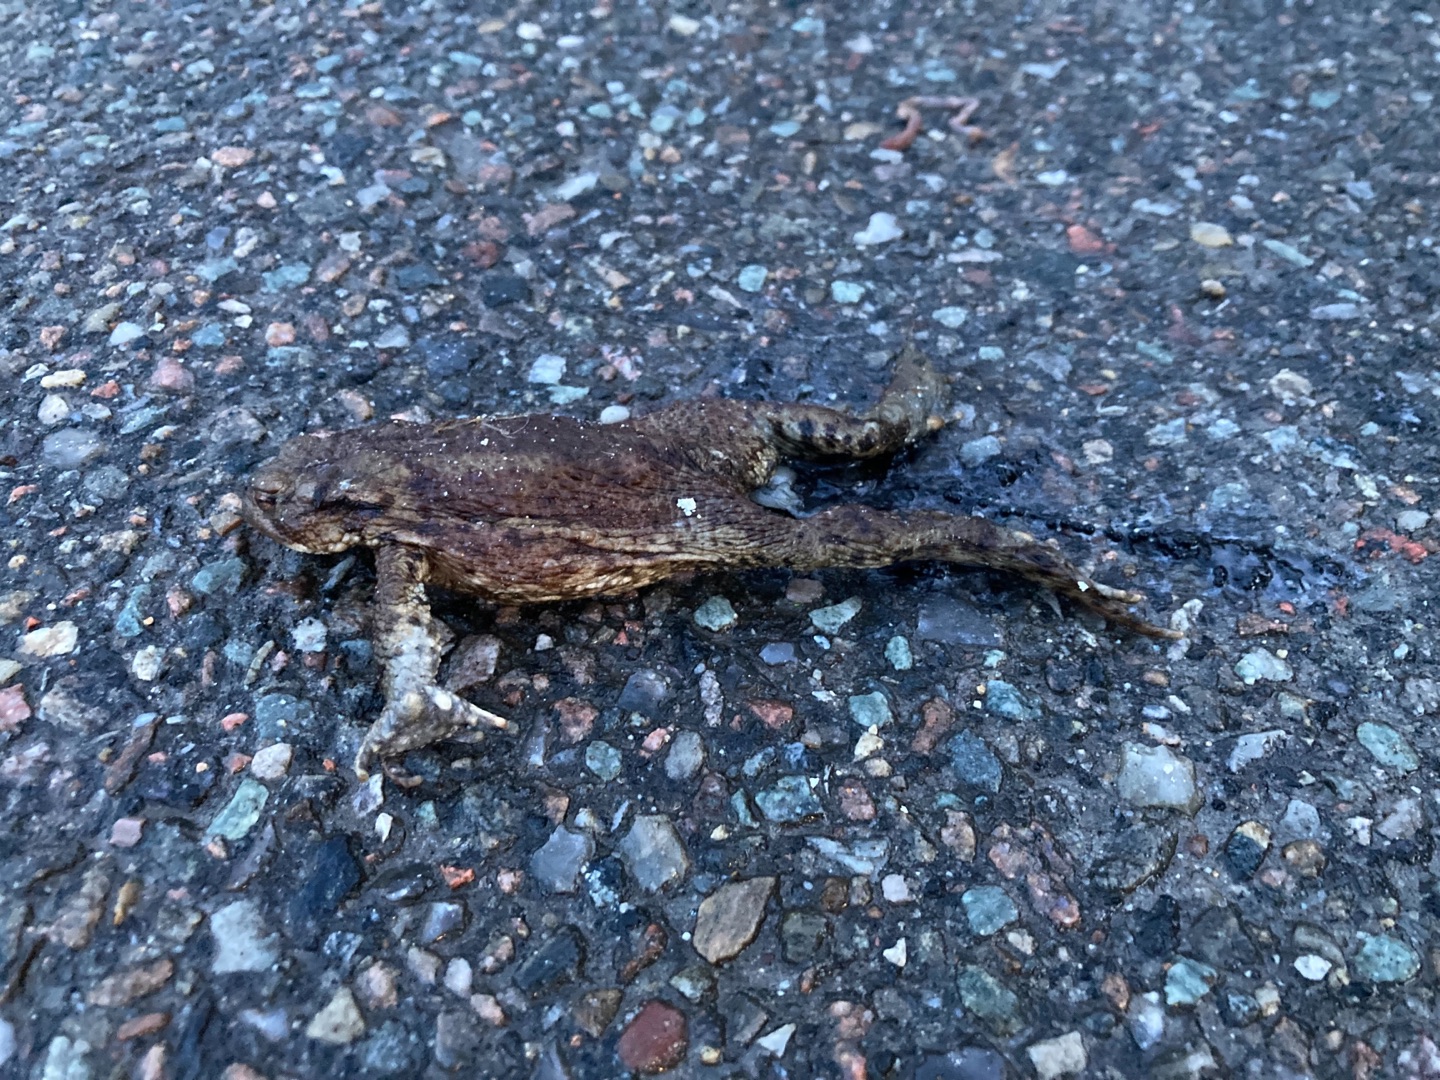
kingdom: Animalia
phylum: Chordata
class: Amphibia
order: Anura
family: Bufonidae
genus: Bufo
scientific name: Bufo bufo
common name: Skrubtudse
